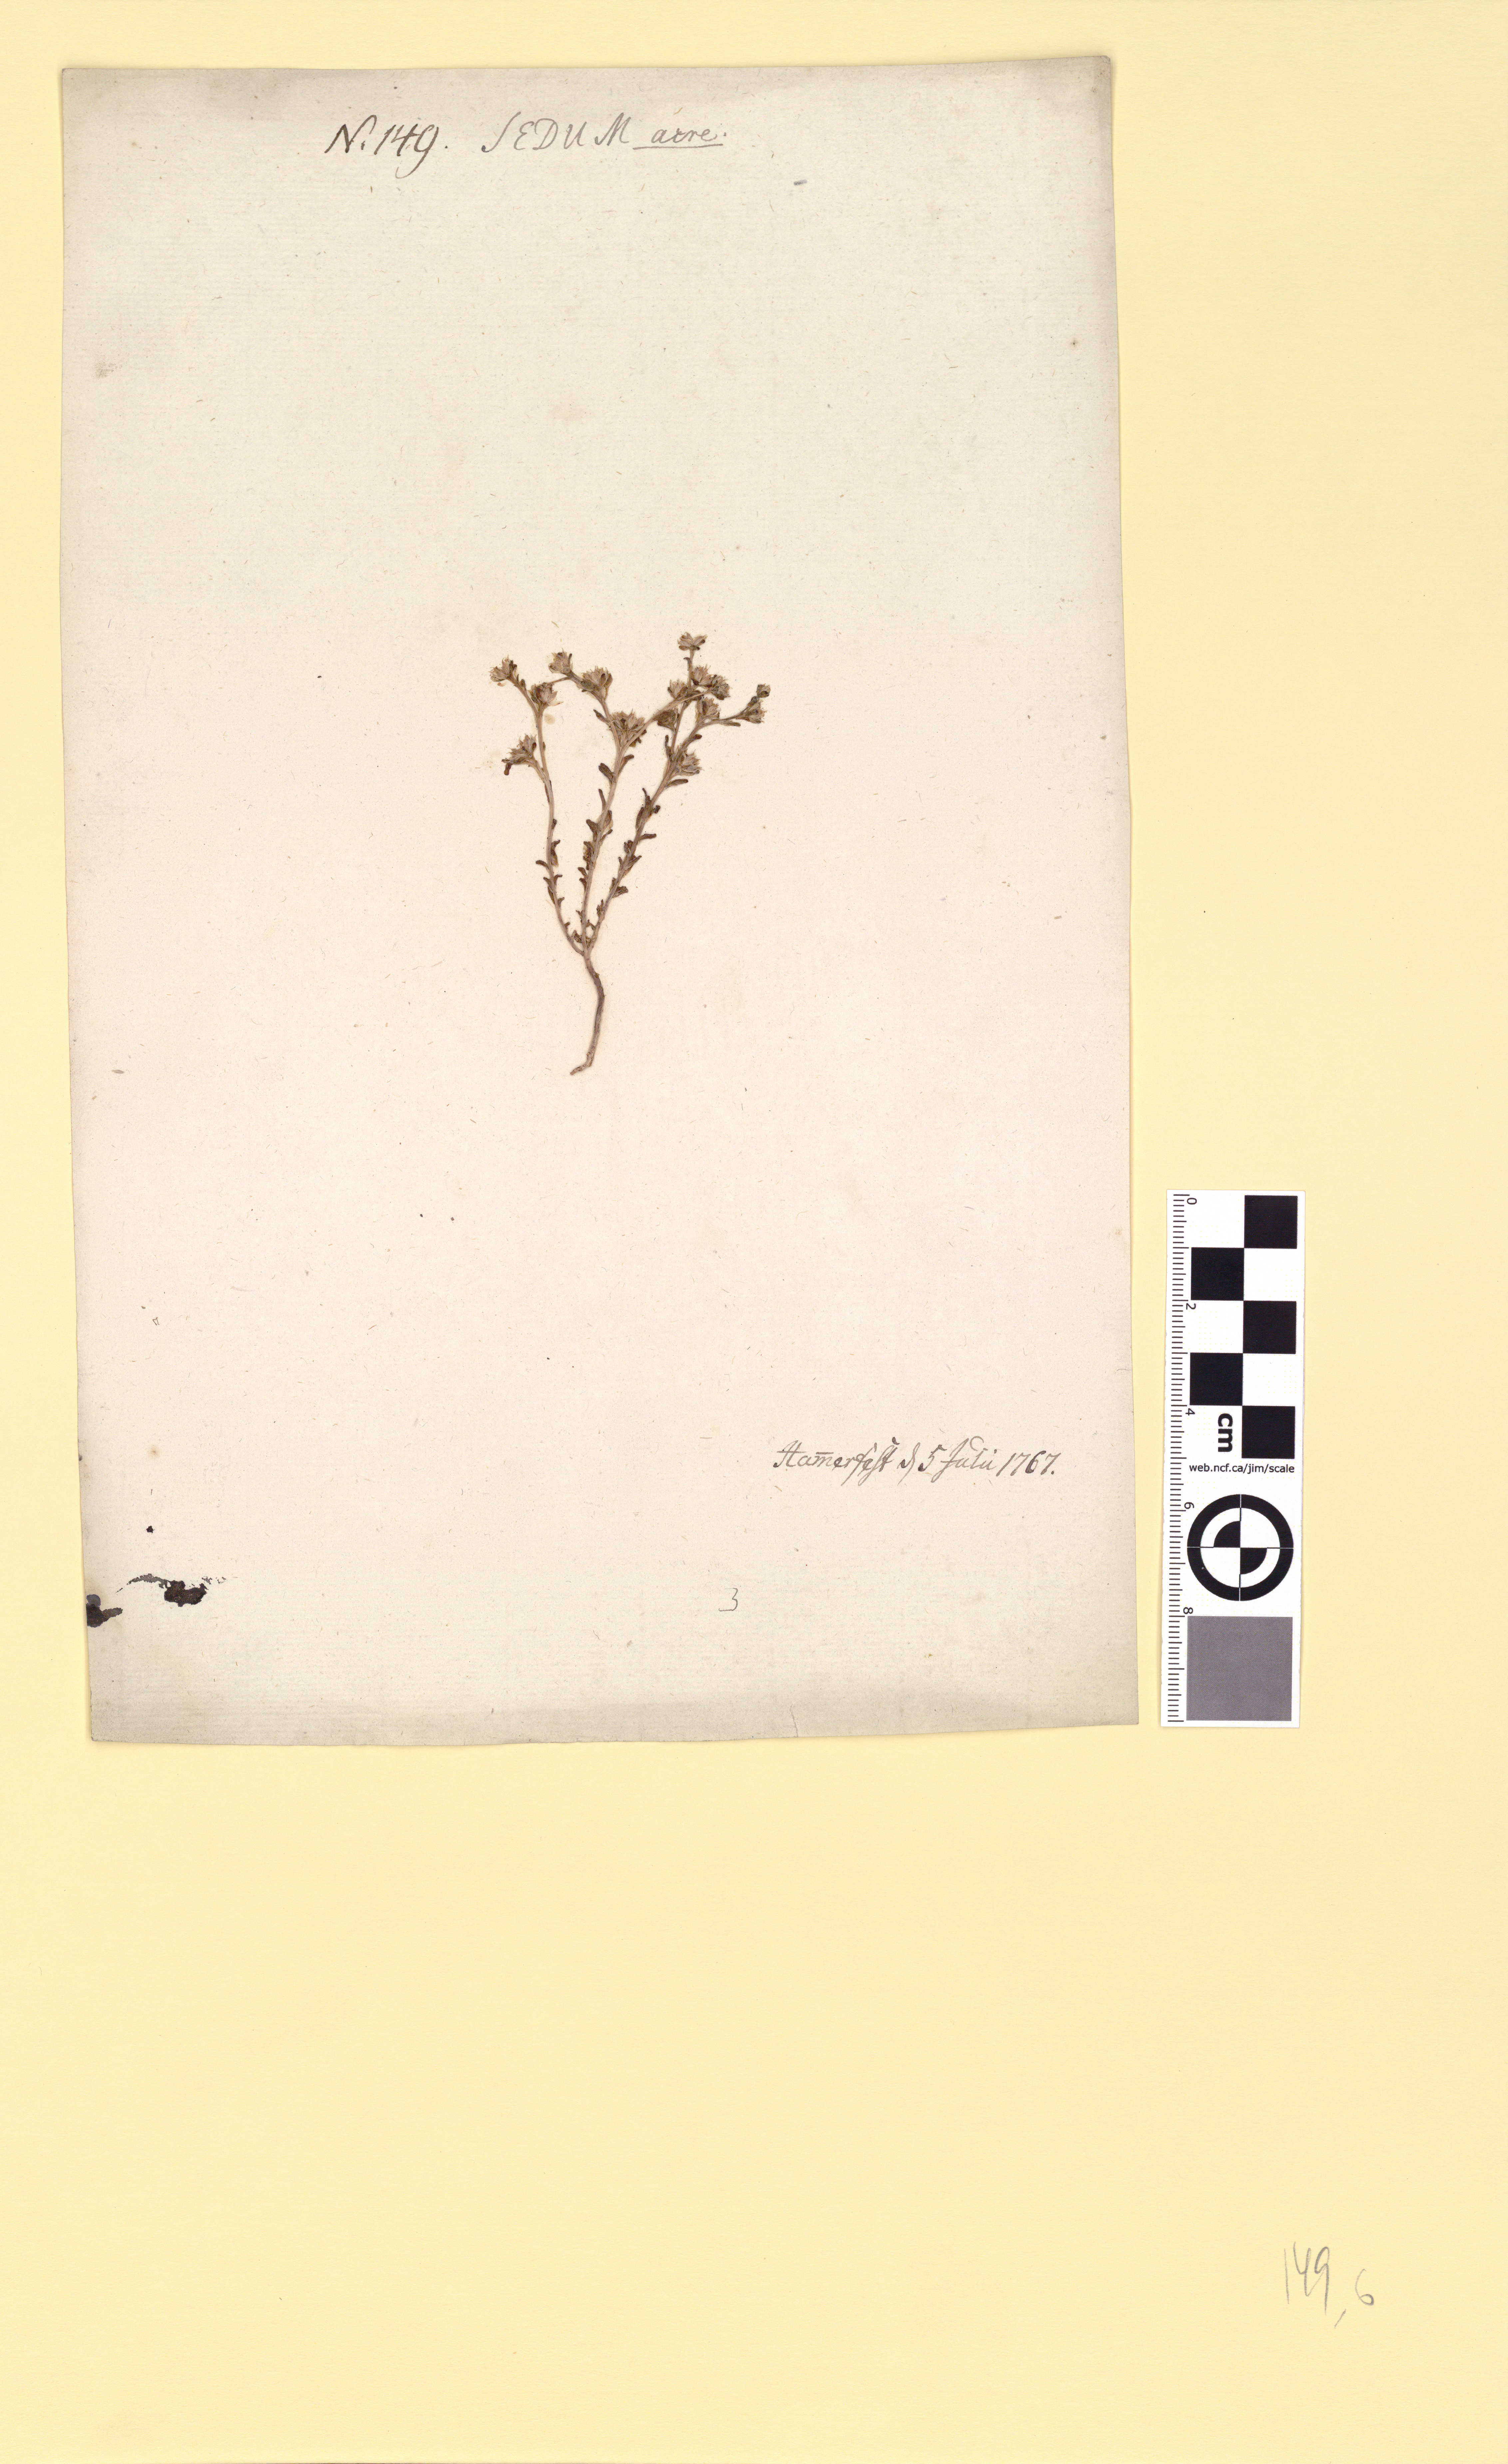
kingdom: Plantae
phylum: Tracheophyta
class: Magnoliopsida
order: Saxifragales
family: Crassulaceae
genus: Sedum
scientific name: Sedum annuum
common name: Annual stonecrop
